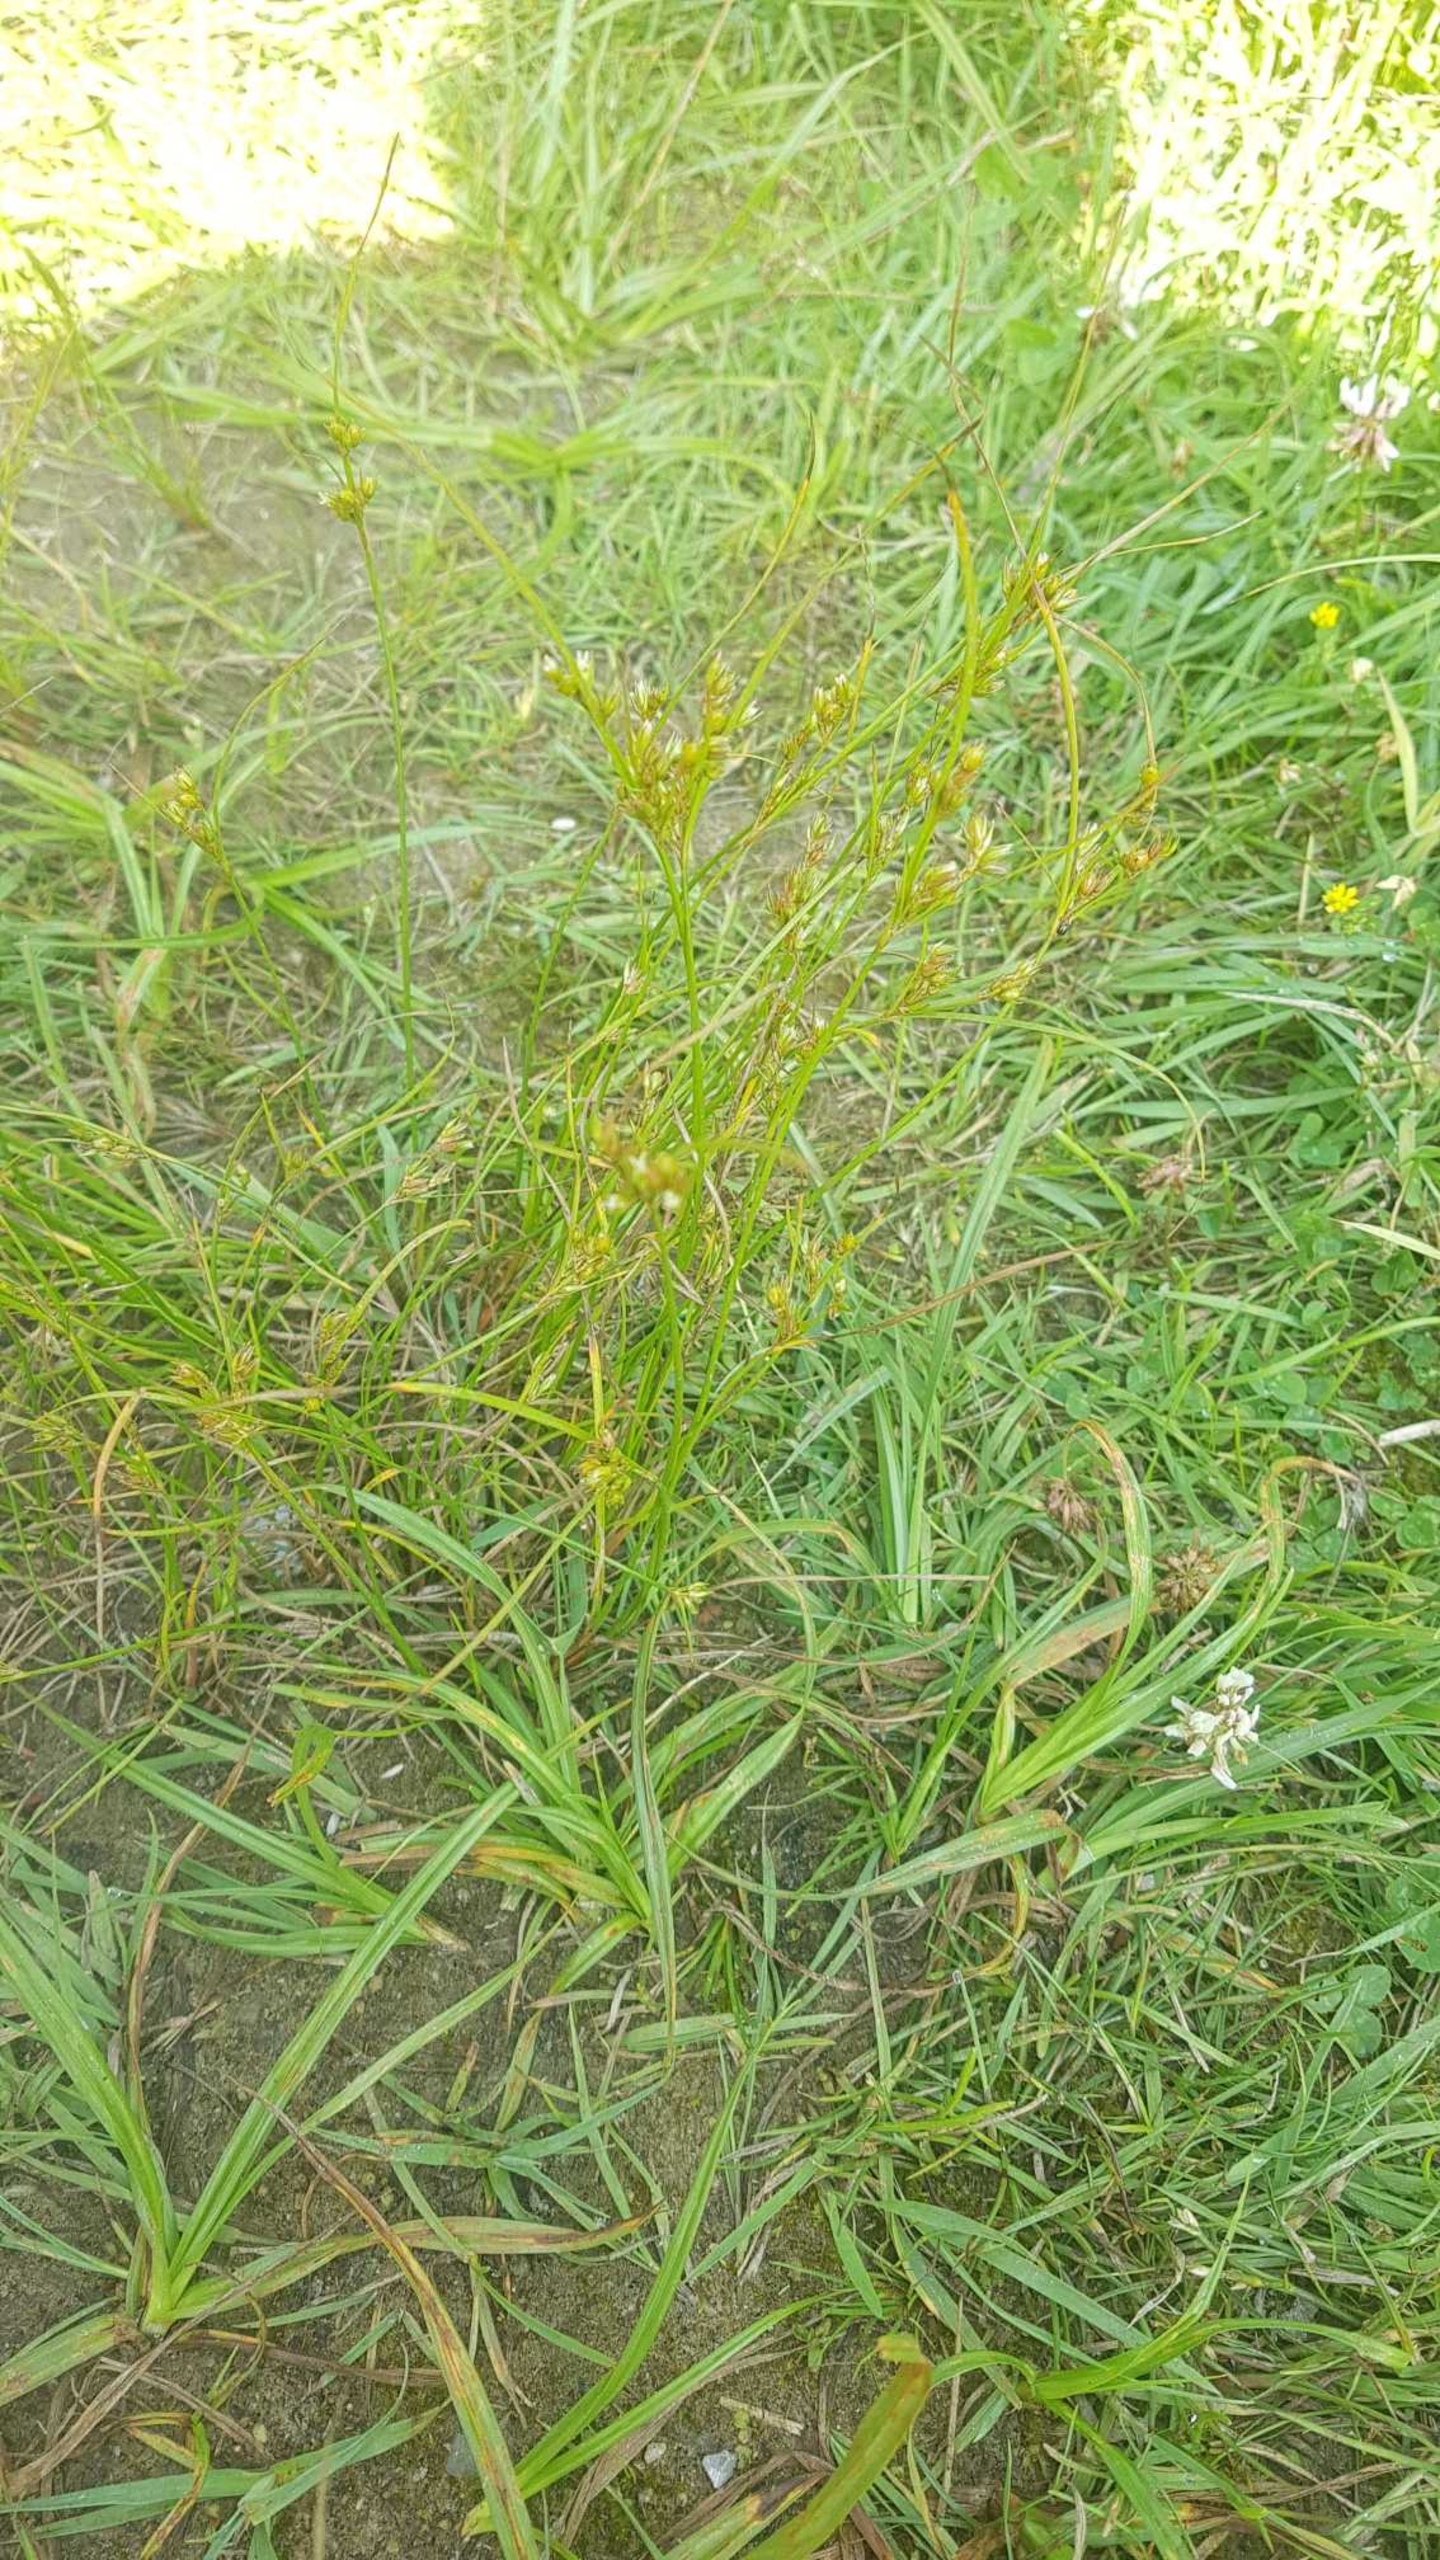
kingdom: Plantae
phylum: Tracheophyta
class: Liliopsida
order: Poales
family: Juncaceae
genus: Juncus
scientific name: Juncus tenuis
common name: Tue-siv
